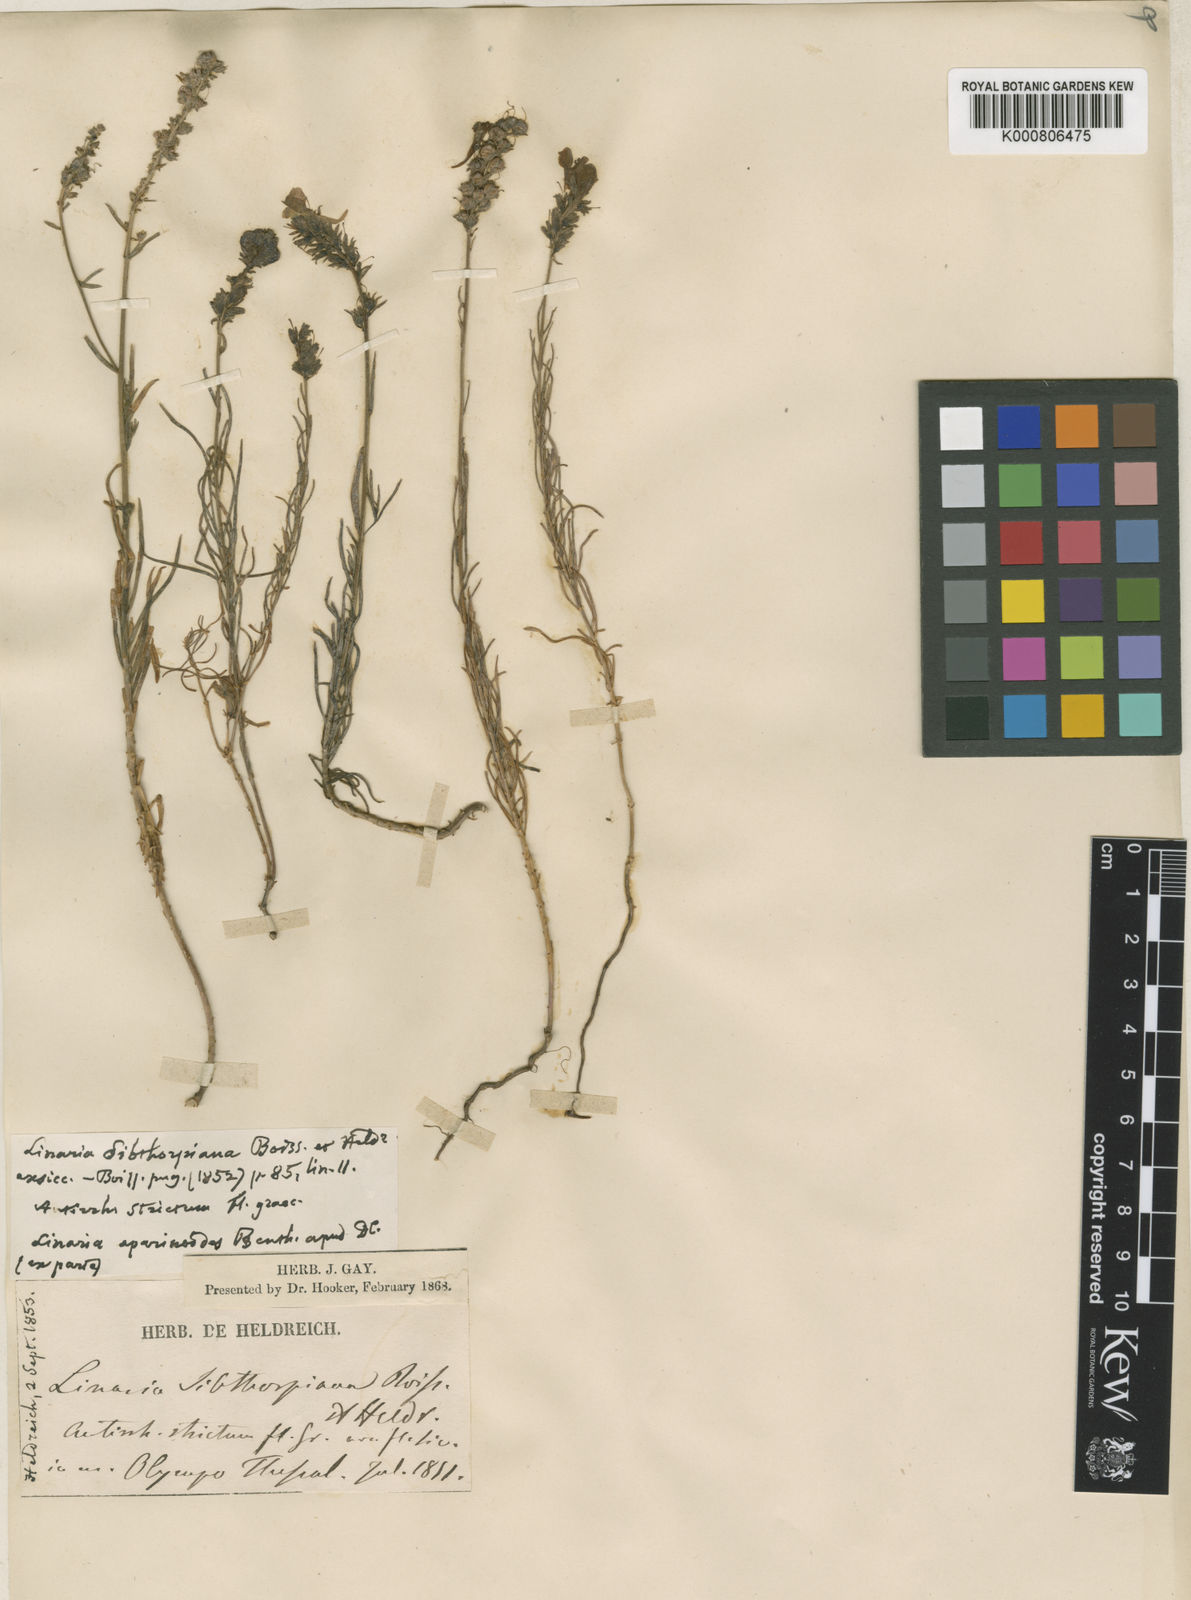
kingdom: Plantae
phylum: Tracheophyta
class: Magnoliopsida
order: Lamiales
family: Plantaginaceae
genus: Linaria
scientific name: Linaria peloponnesiaca
